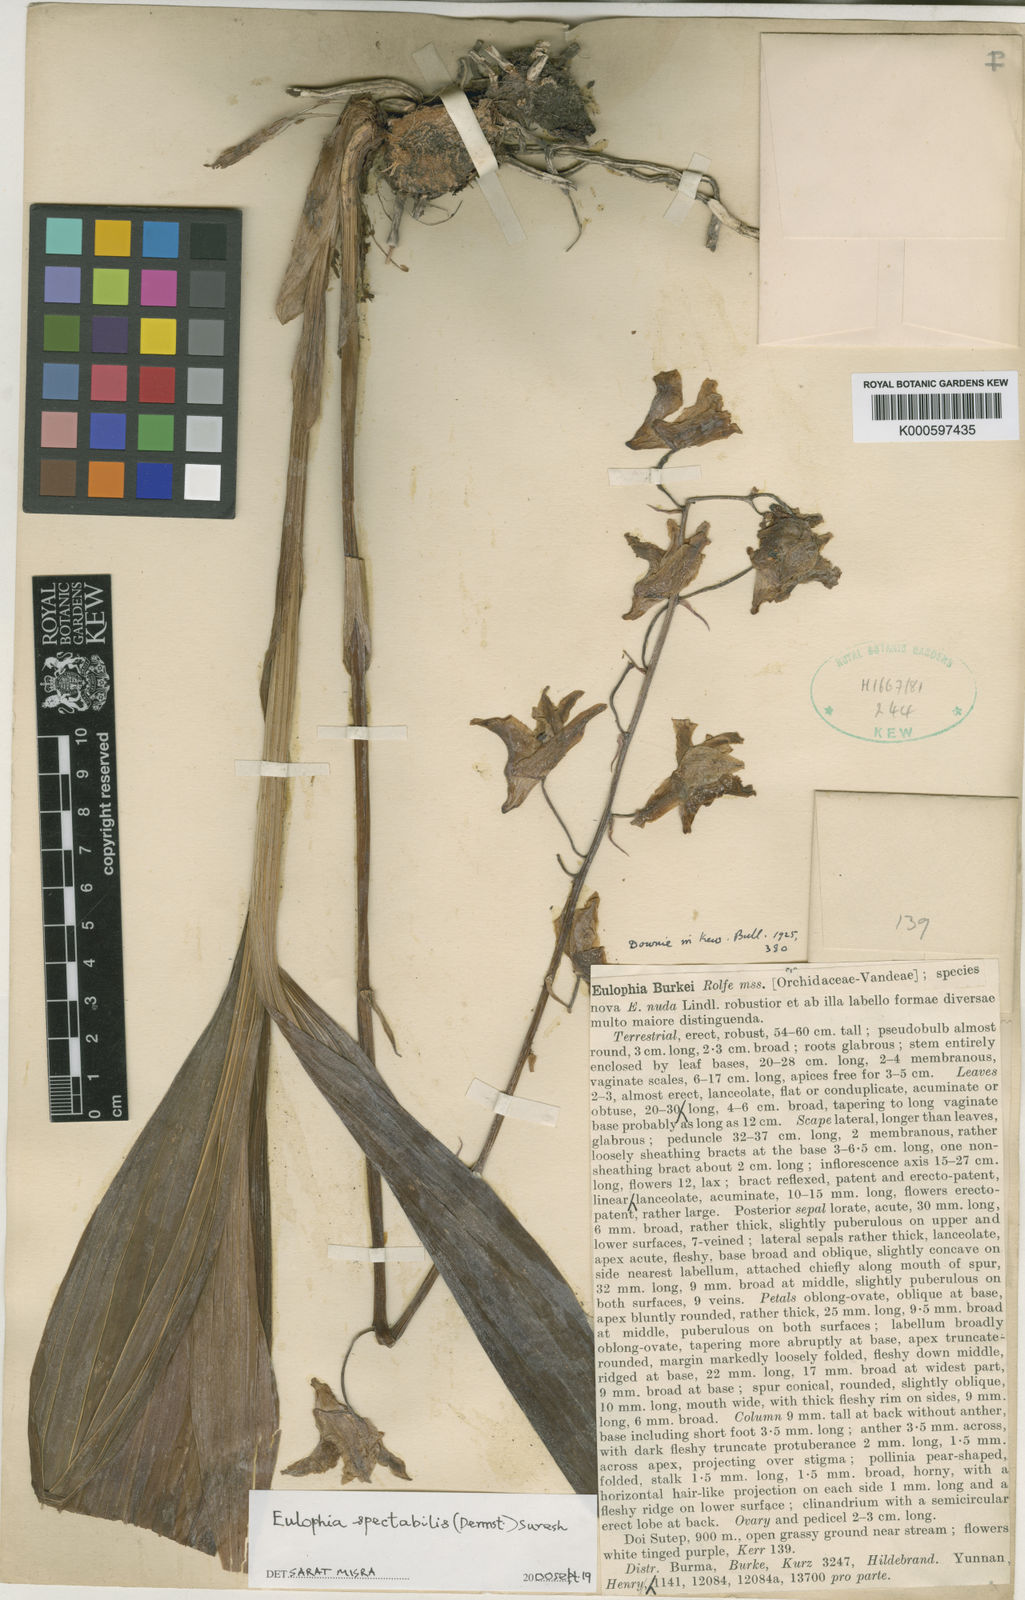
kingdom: Plantae
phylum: Tracheophyta
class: Liliopsida
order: Asparagales
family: Orchidaceae
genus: Eulophia
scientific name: Eulophia nuda
